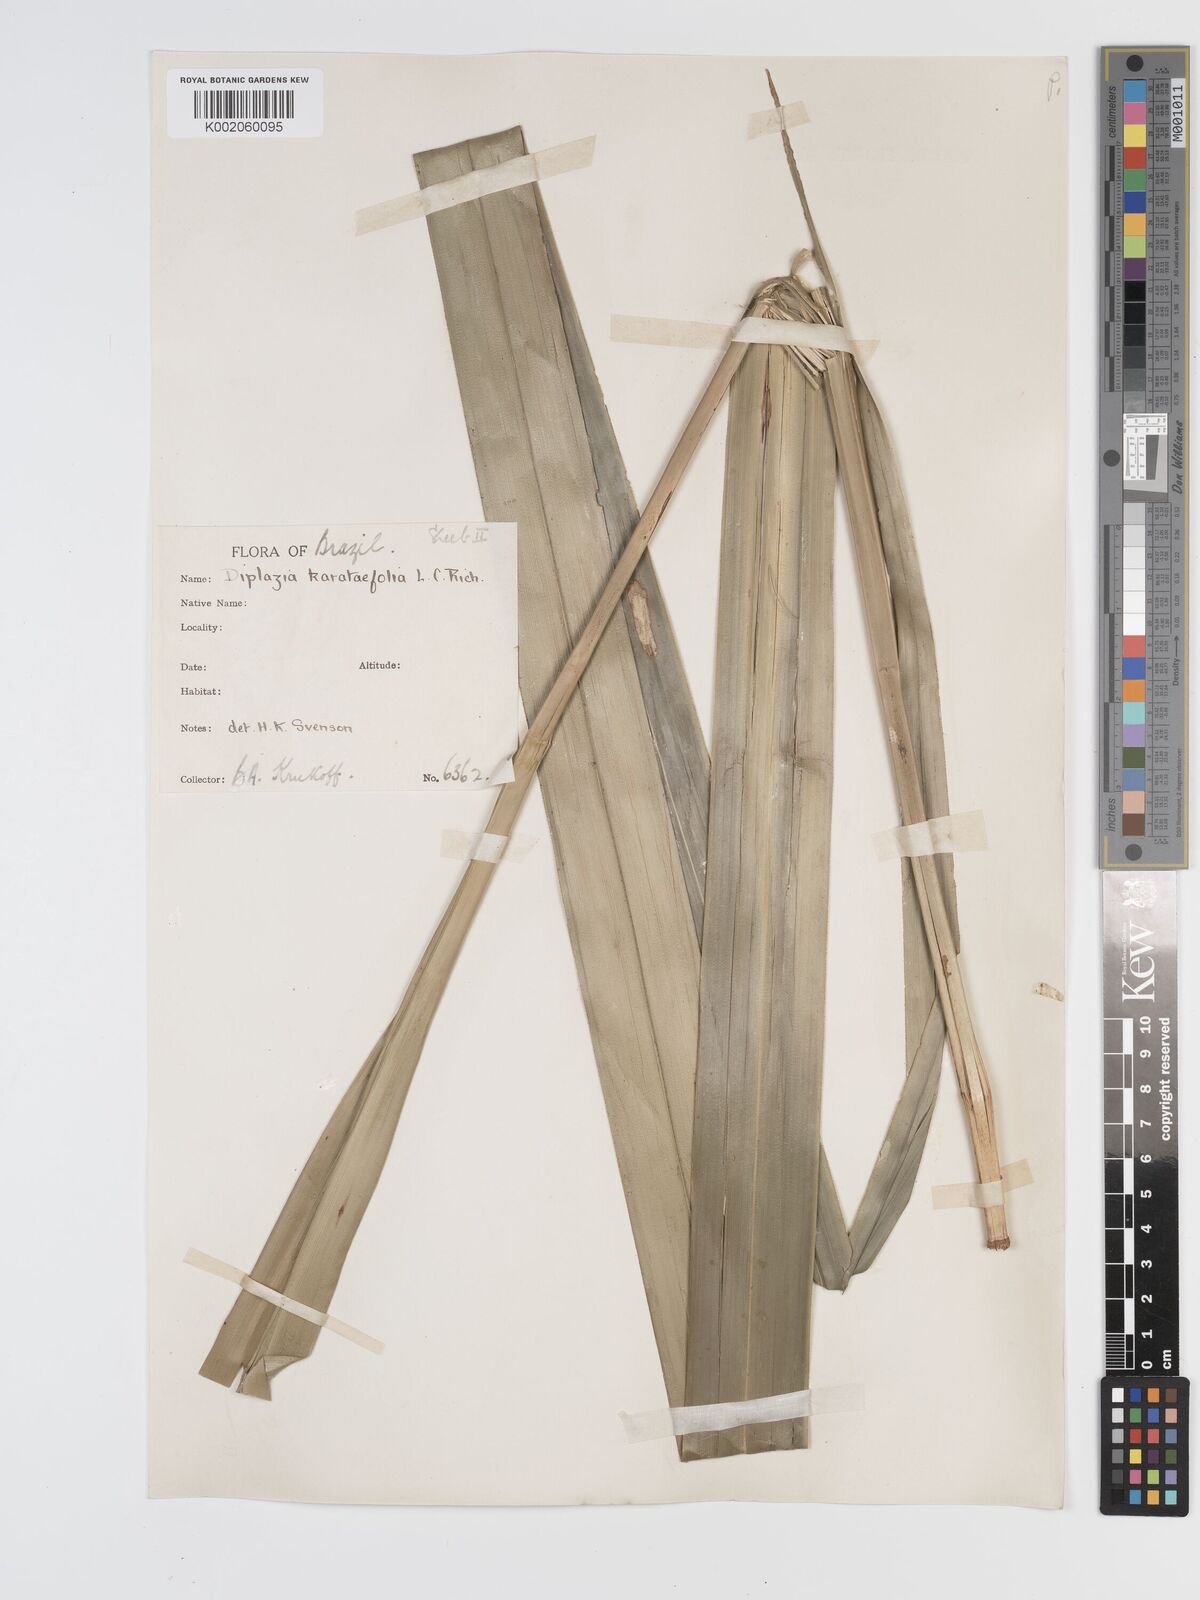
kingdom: Plantae
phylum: Tracheophyta
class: Liliopsida
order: Poales
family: Cyperaceae
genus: Diplasia
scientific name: Diplasia karatifolia
